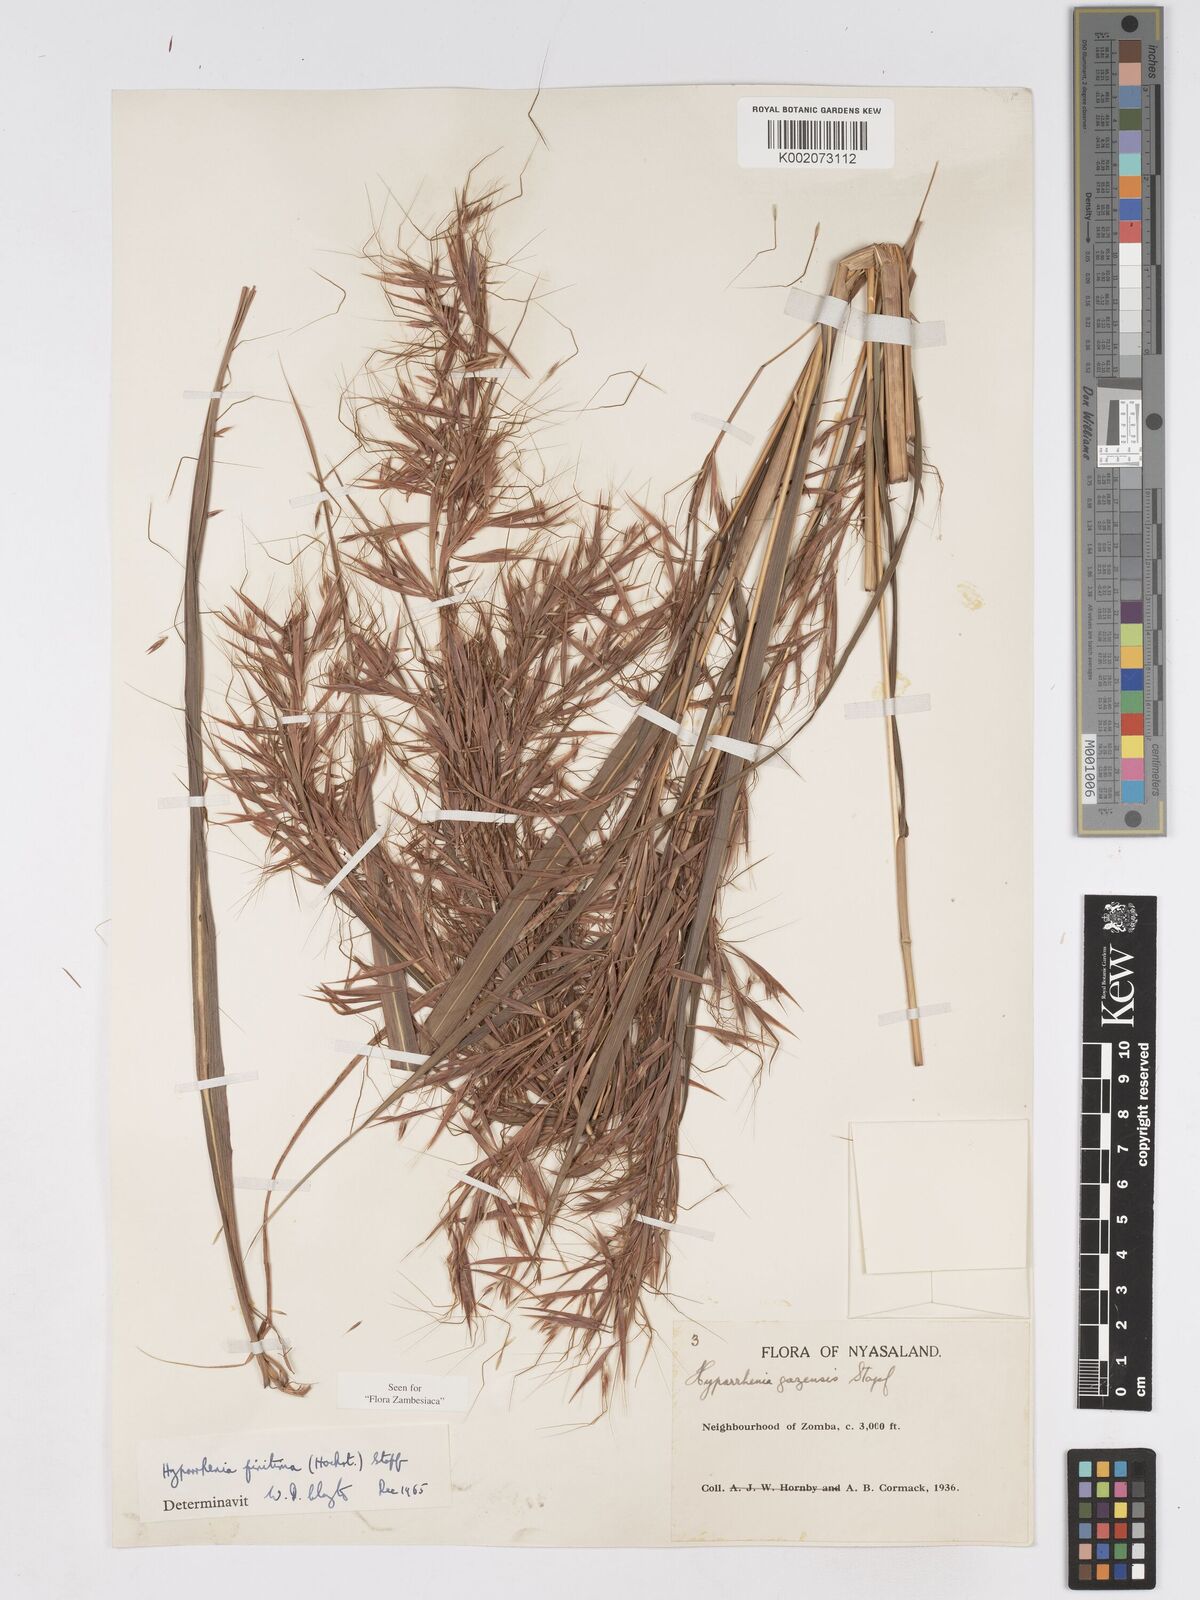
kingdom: Plantae
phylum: Tracheophyta
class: Liliopsida
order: Poales
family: Poaceae
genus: Hyparrhenia
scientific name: Hyparrhenia finitima
